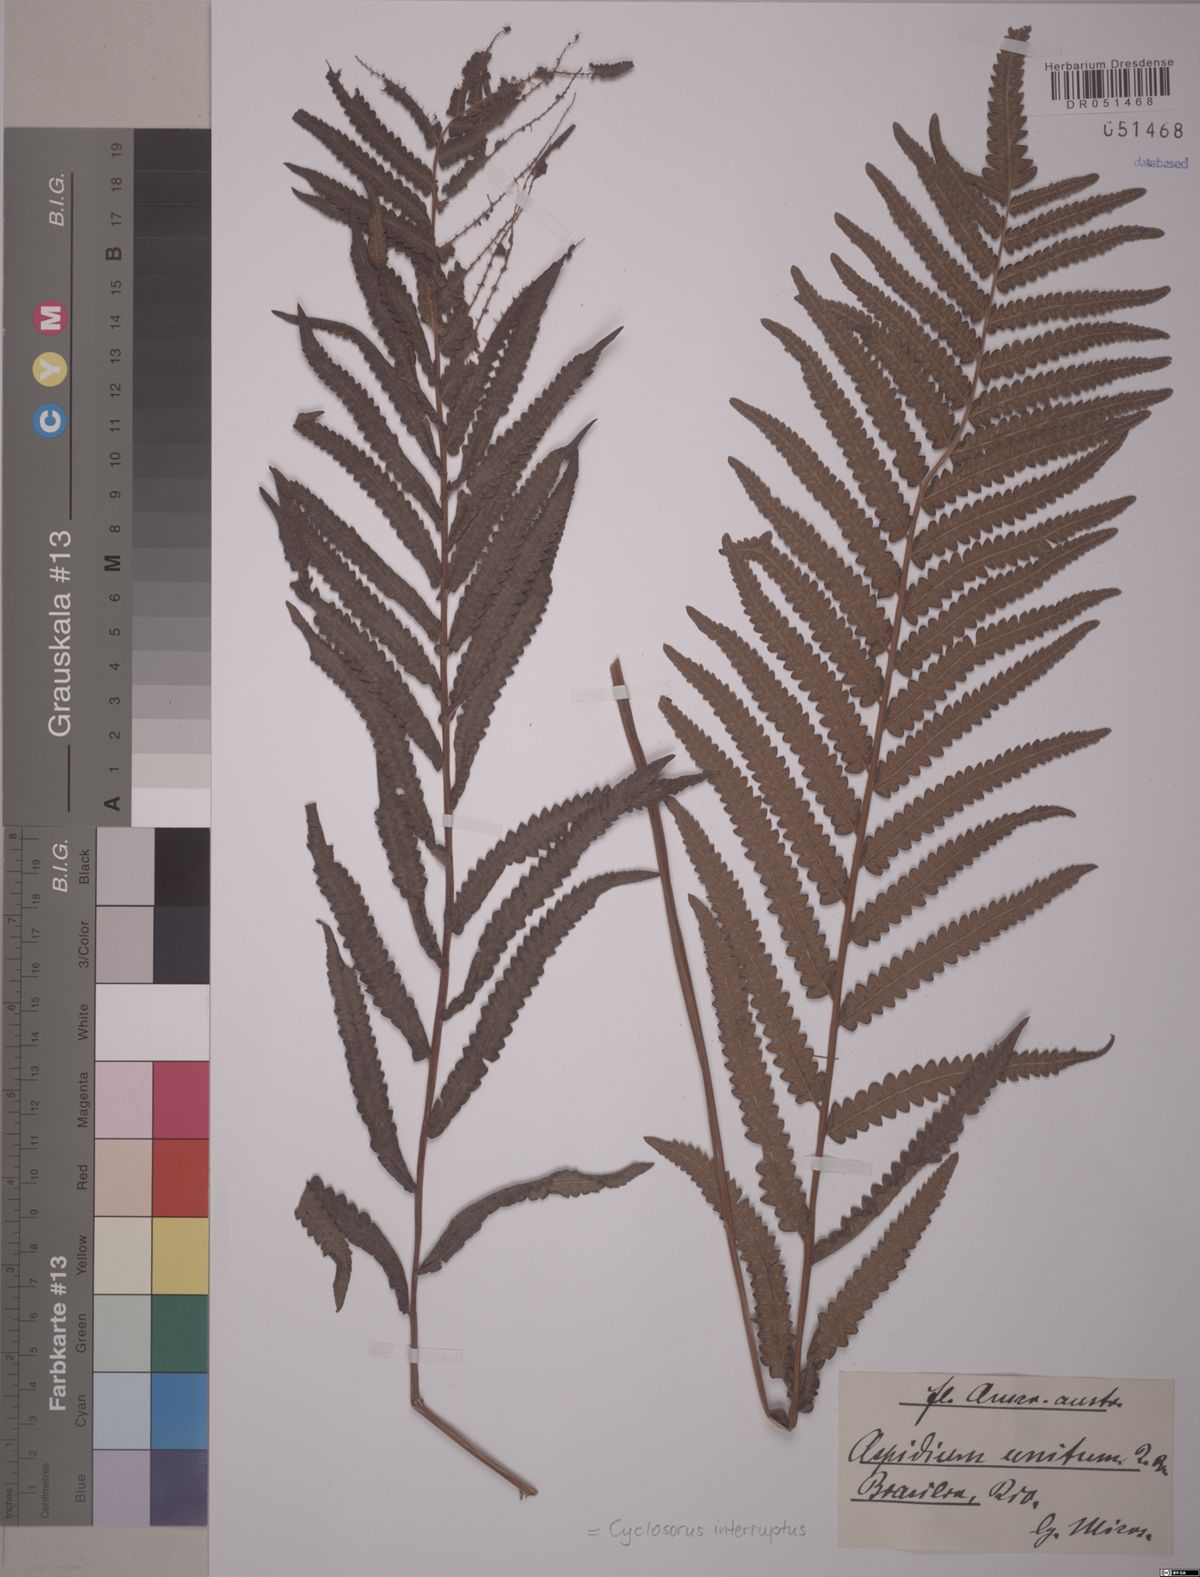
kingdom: Plantae
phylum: Tracheophyta
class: Polypodiopsida
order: Polypodiales
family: Thelypteridaceae
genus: Cyclosorus
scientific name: Cyclosorus interruptus
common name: Neke fern
